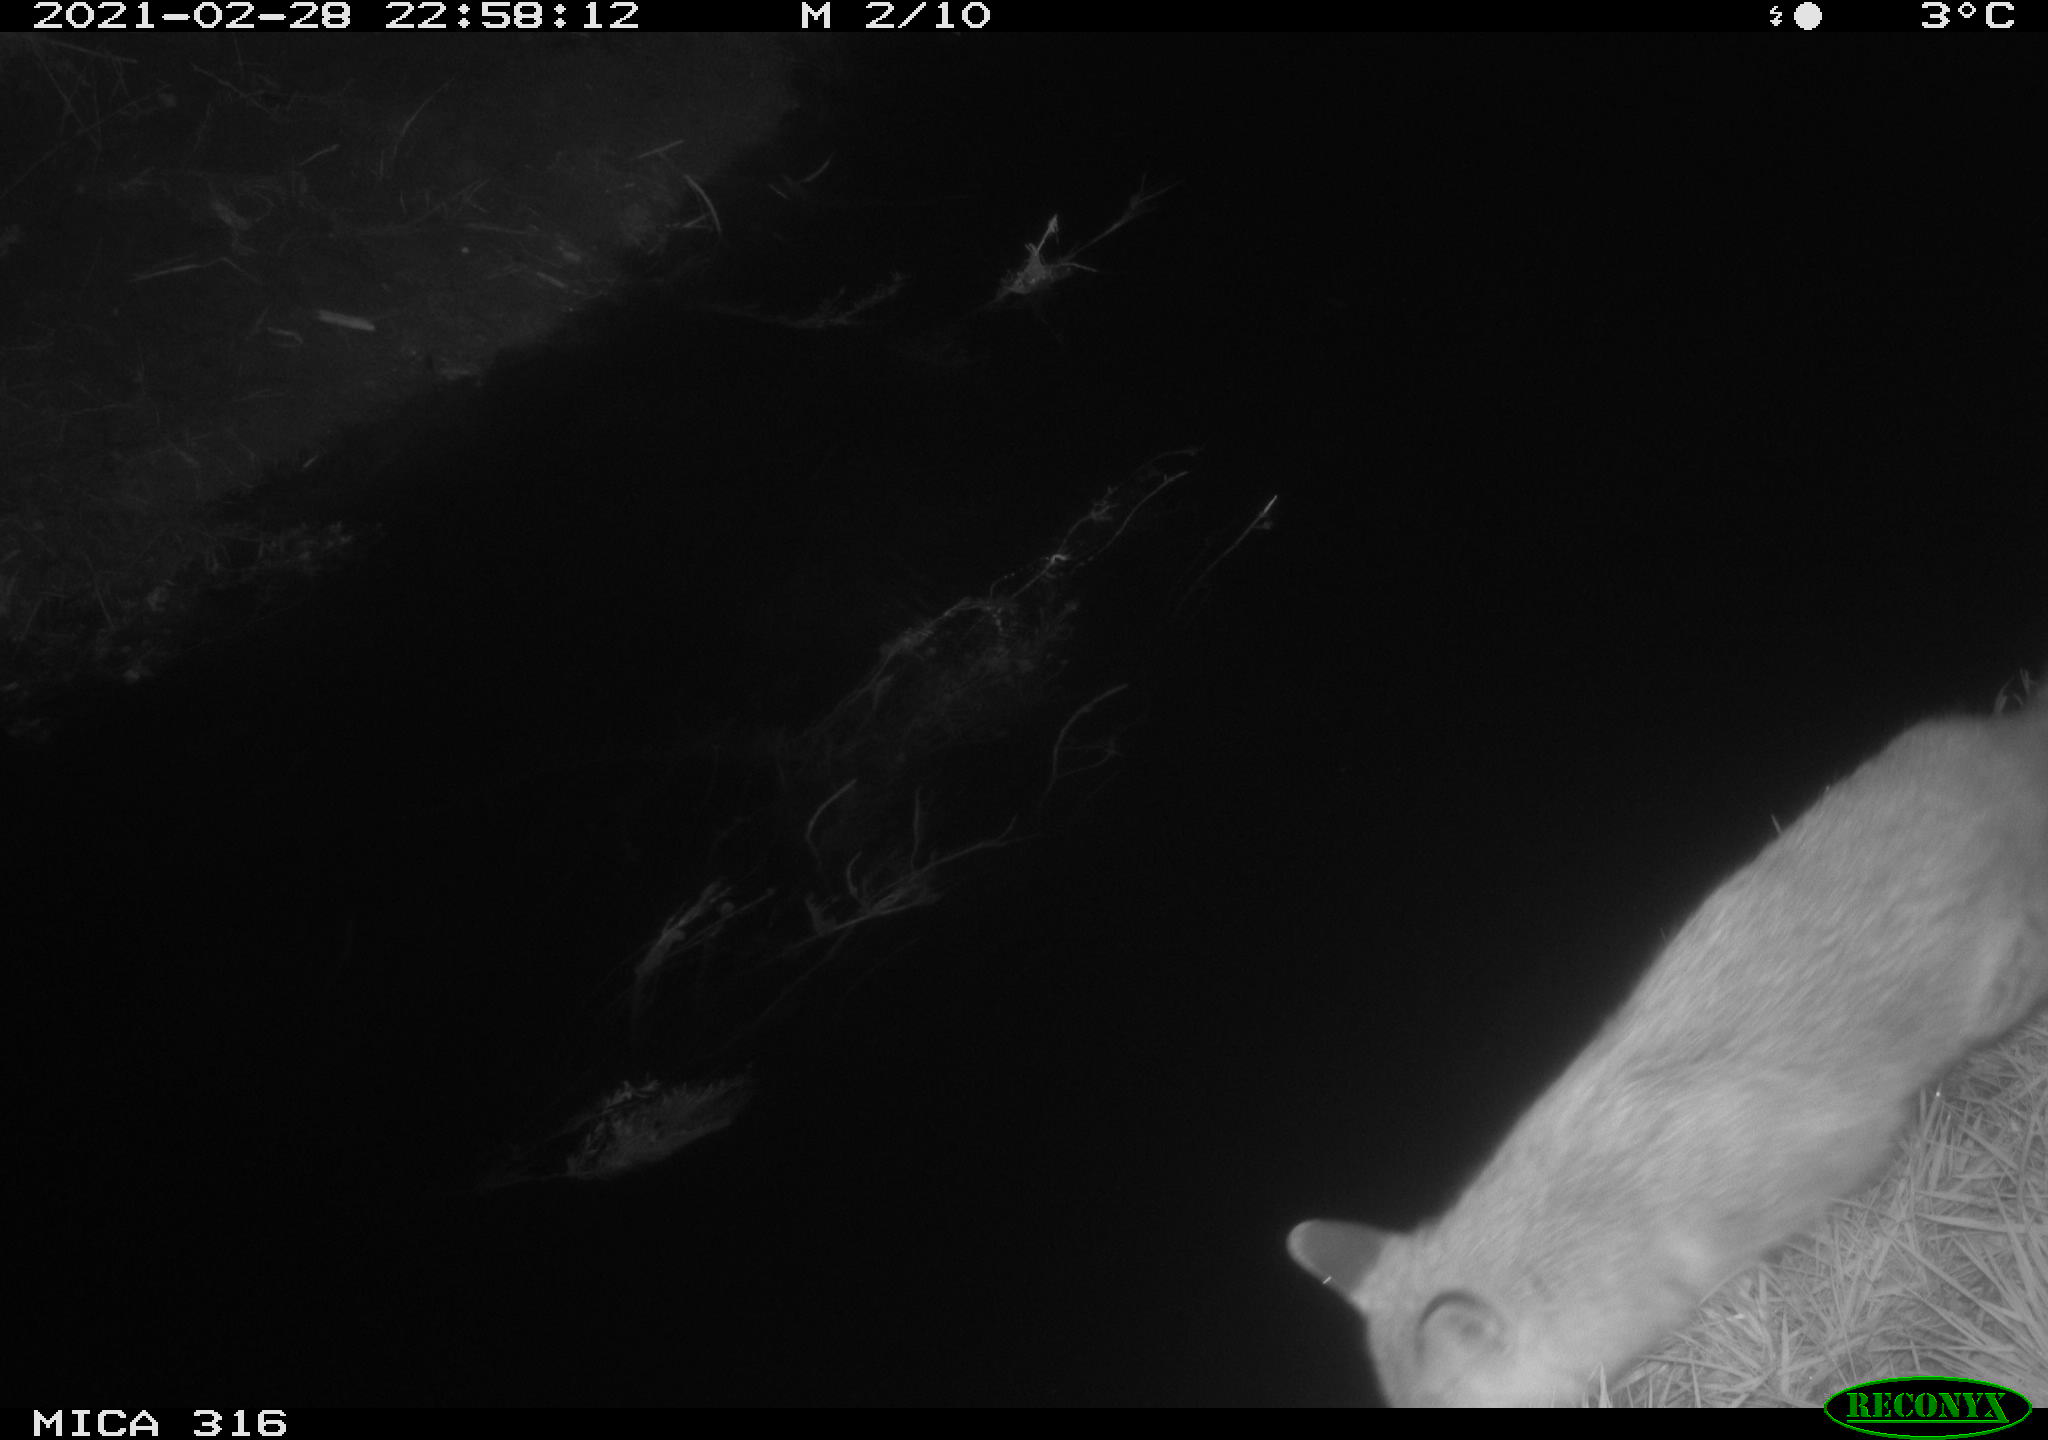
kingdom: Animalia
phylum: Chordata
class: Mammalia
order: Carnivora
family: Canidae
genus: Vulpes
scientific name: Vulpes vulpes
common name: Red fox
